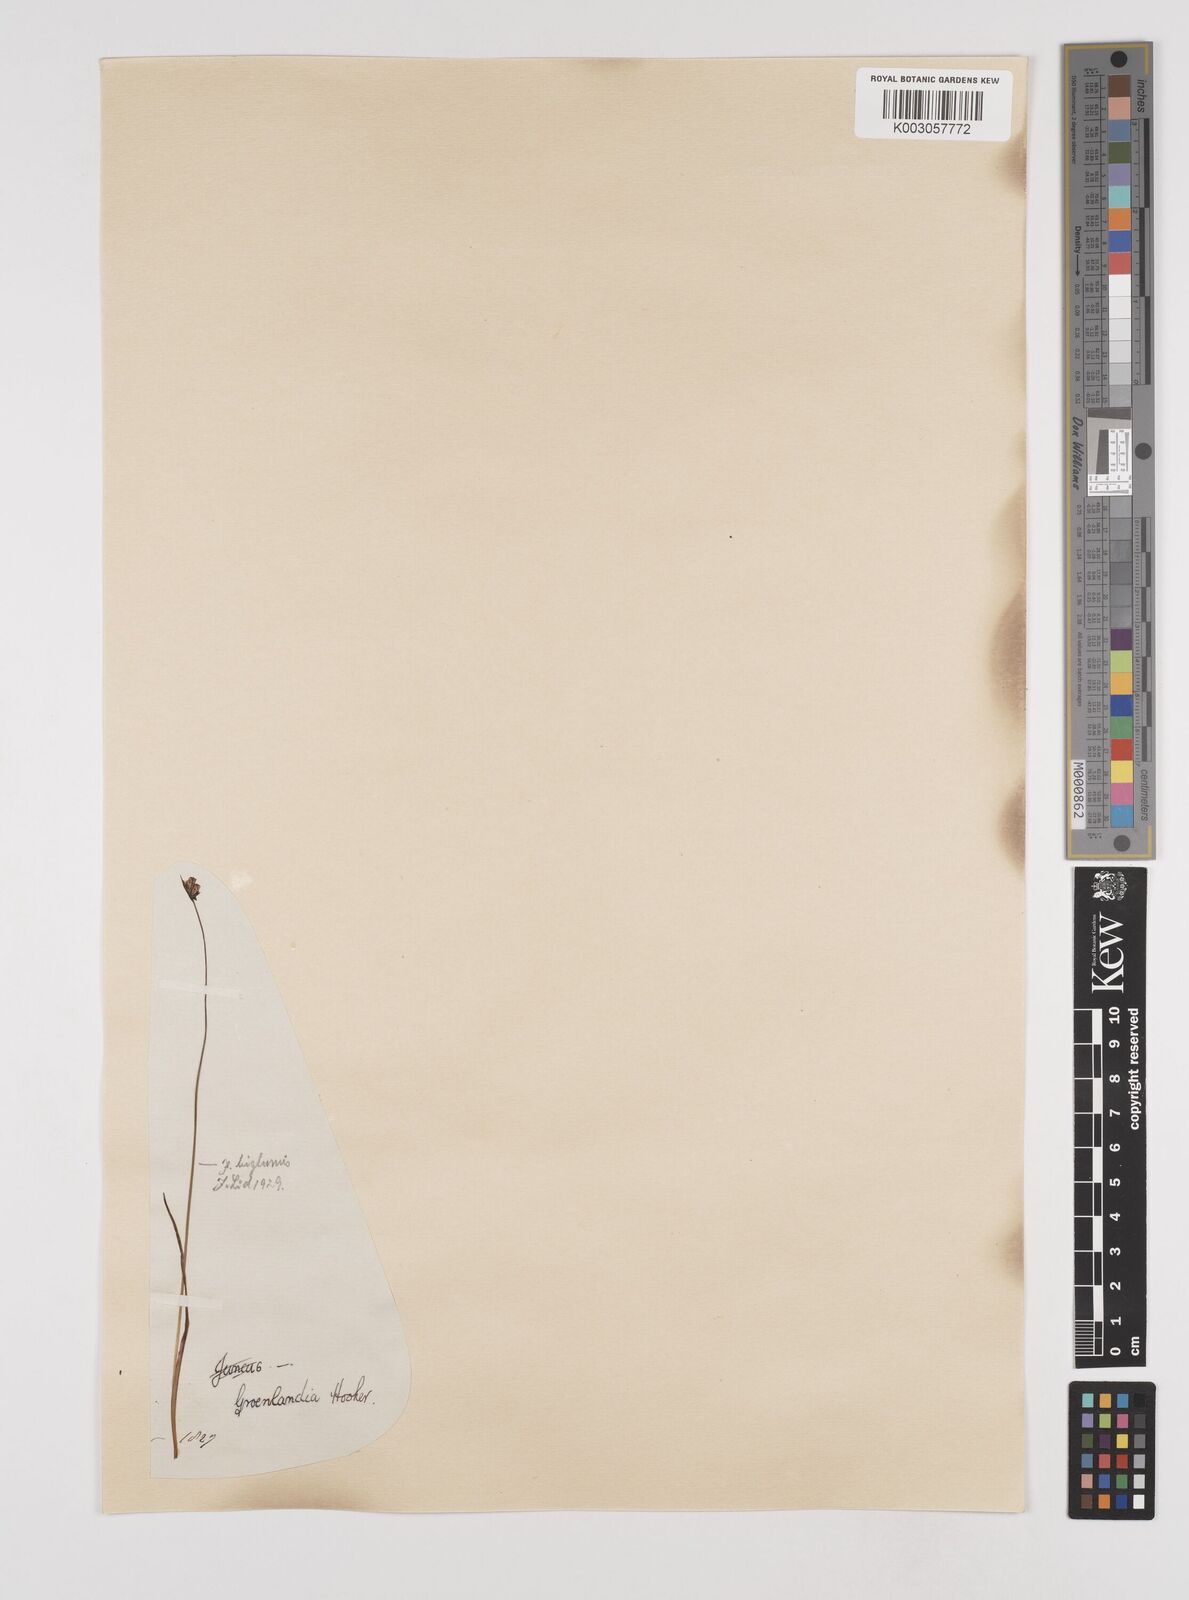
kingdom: Plantae
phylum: Tracheophyta
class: Liliopsida
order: Poales
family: Juncaceae
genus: Juncus
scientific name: Juncus biglumis
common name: Two-flowered rush
